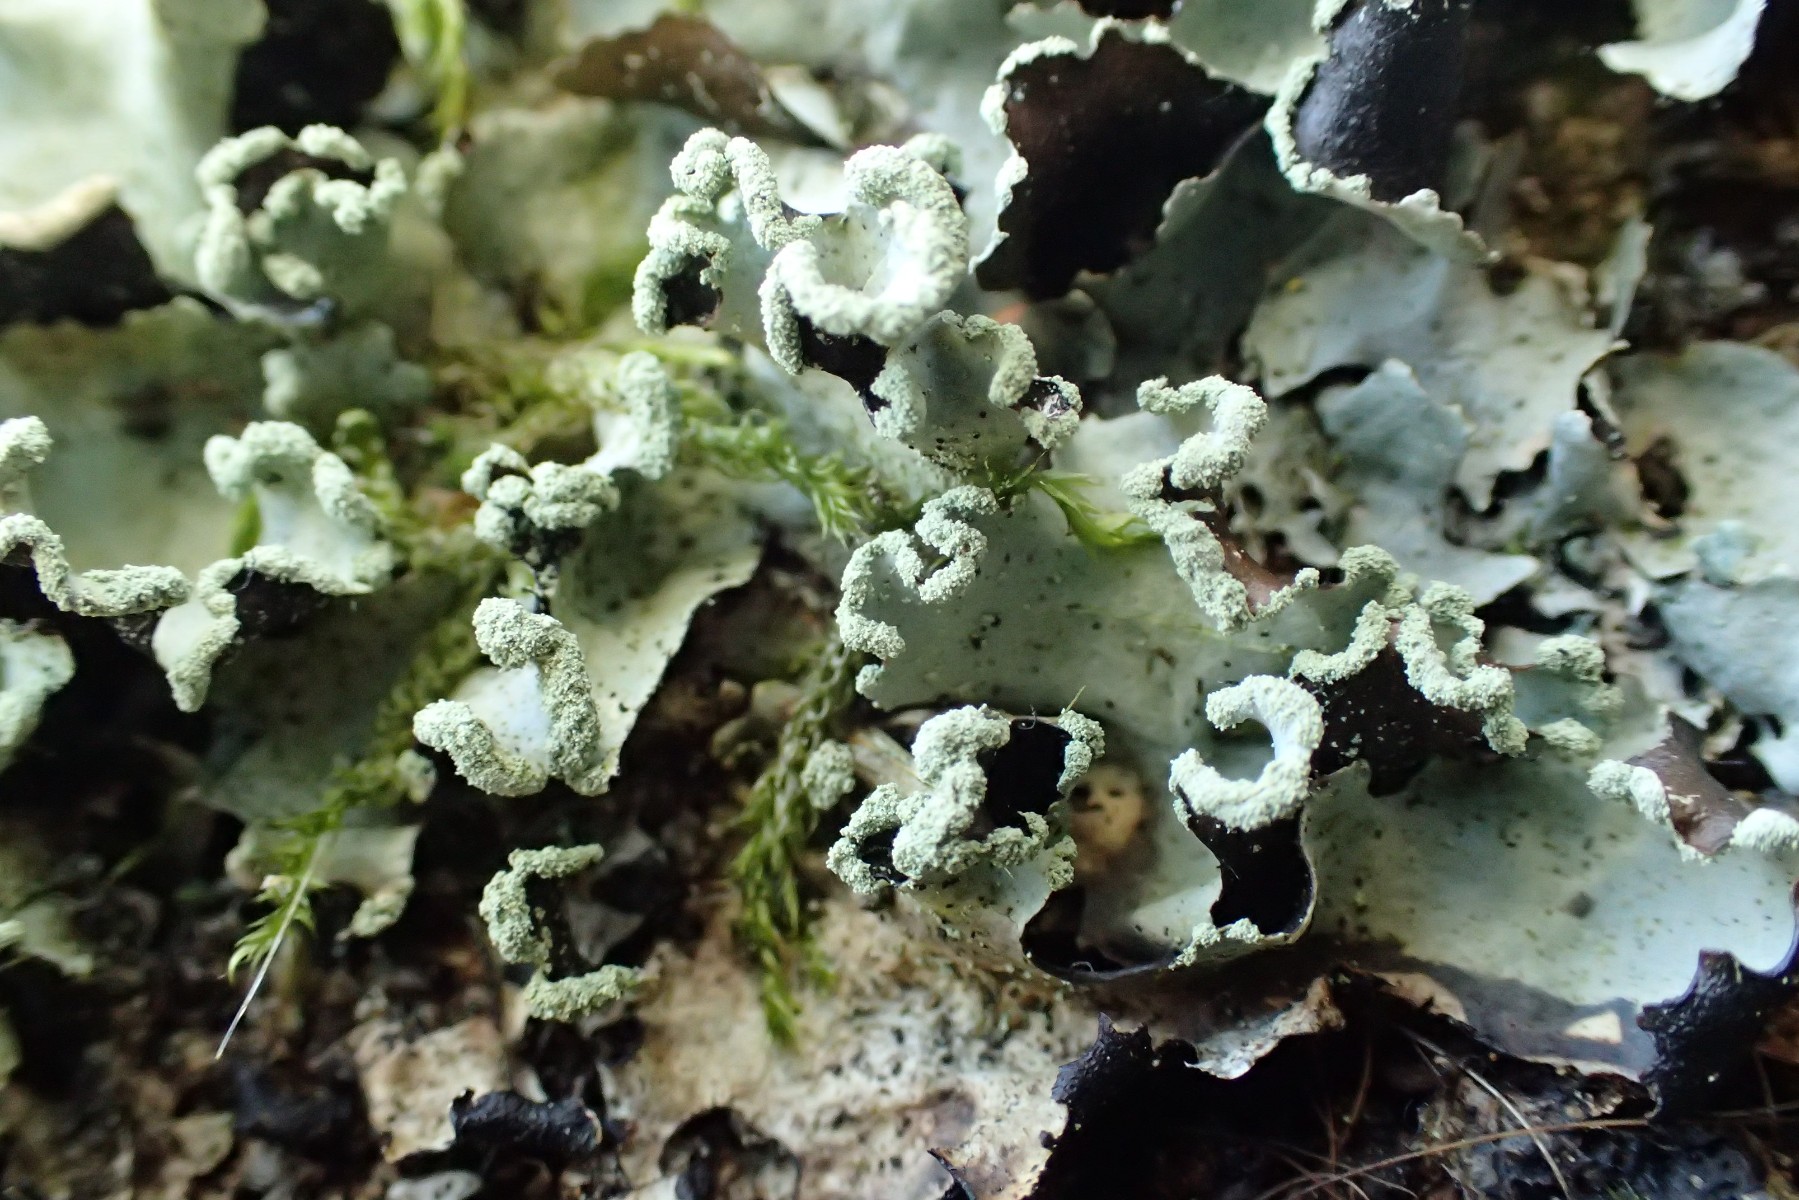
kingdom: Fungi
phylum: Ascomycota
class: Lecanoromycetes
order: Lecanorales
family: Parmeliaceae
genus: Parmotrema
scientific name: Parmotrema perlatum
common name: trådet skållav
